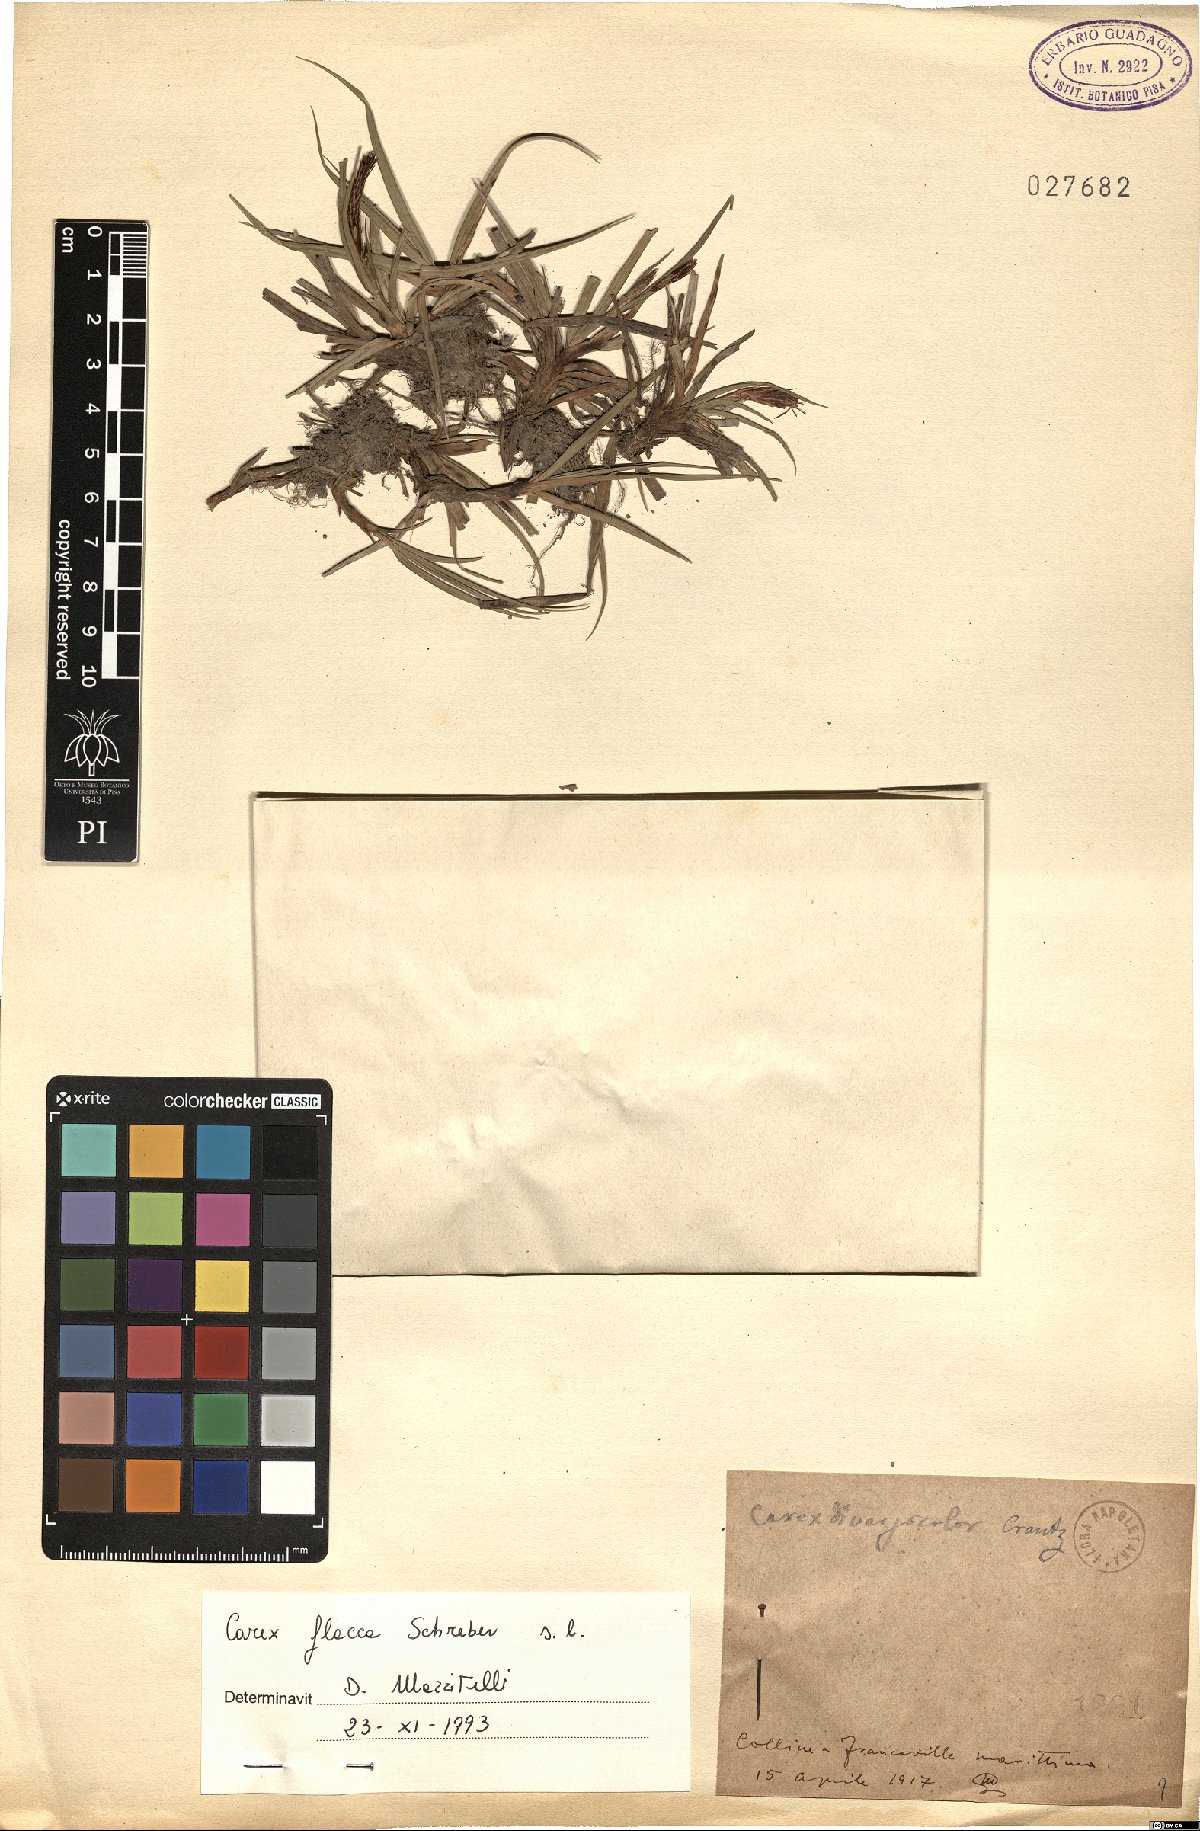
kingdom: Plantae
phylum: Tracheophyta
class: Liliopsida
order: Poales
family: Cyperaceae
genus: Carex
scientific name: Carex flacca
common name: Glaucous sedge
